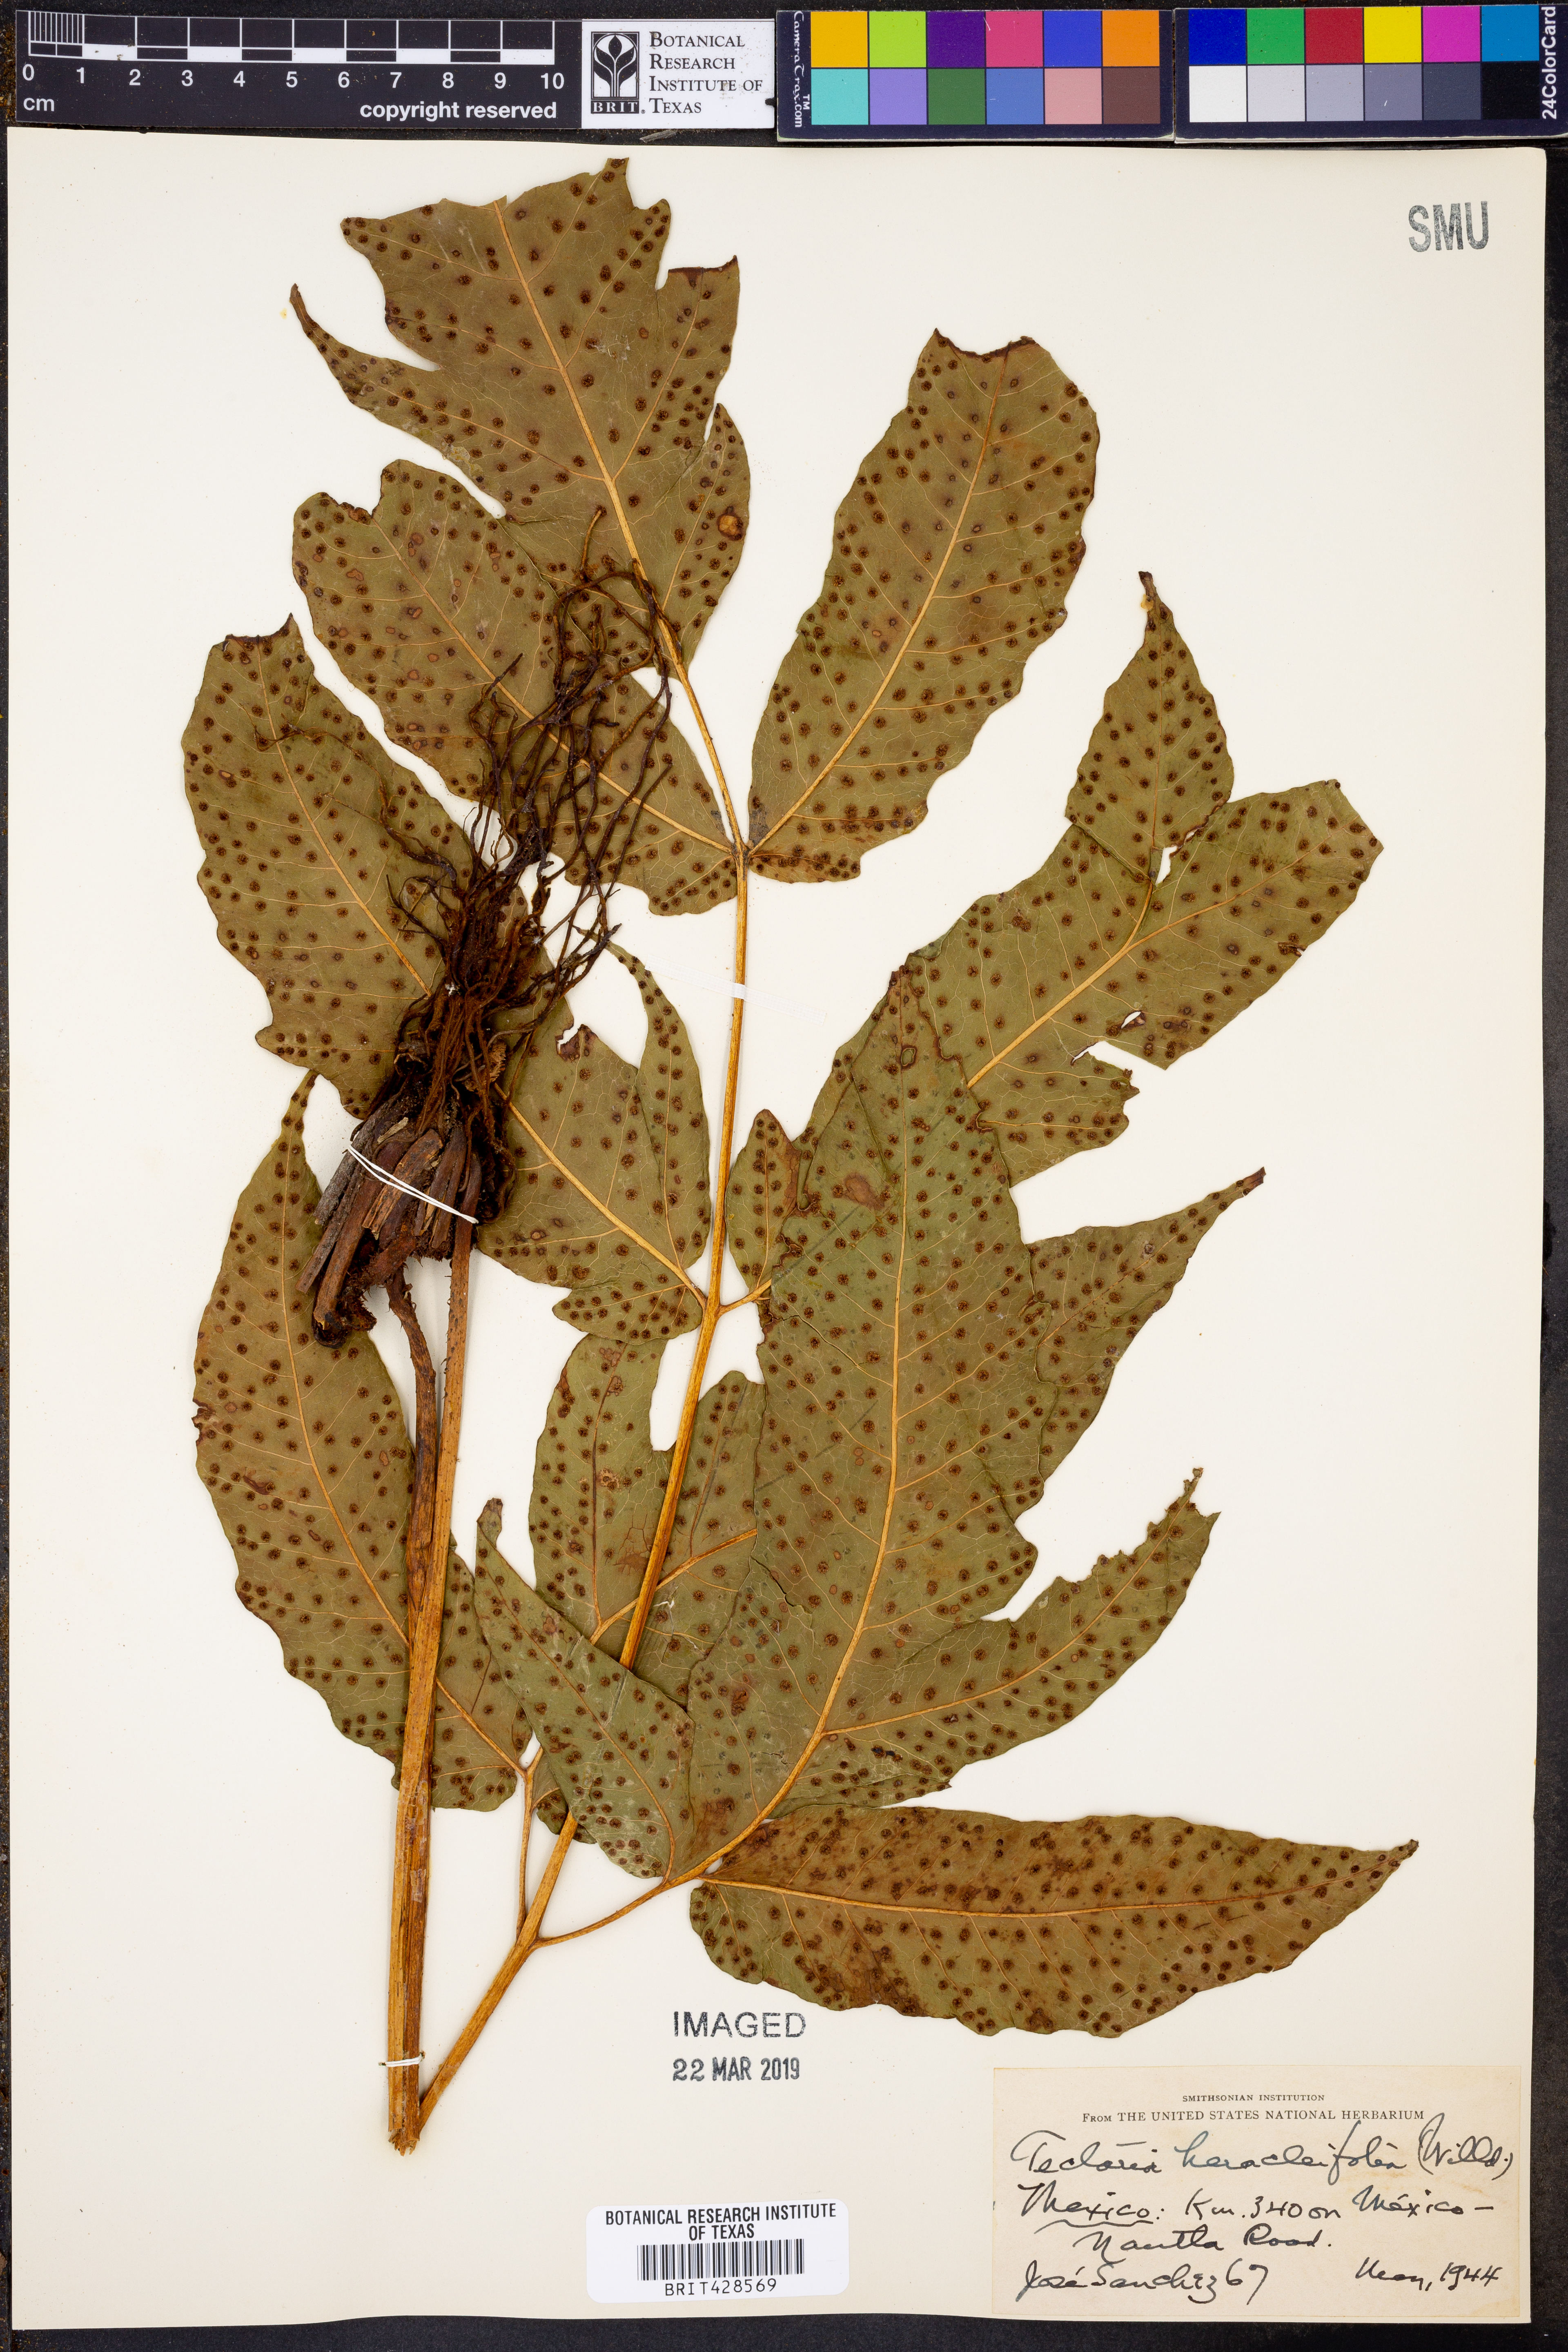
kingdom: Plantae
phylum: Tracheophyta
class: Polypodiopsida
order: Polypodiales
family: Tectariaceae
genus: Tectaria
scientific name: Tectaria heracleifolia
